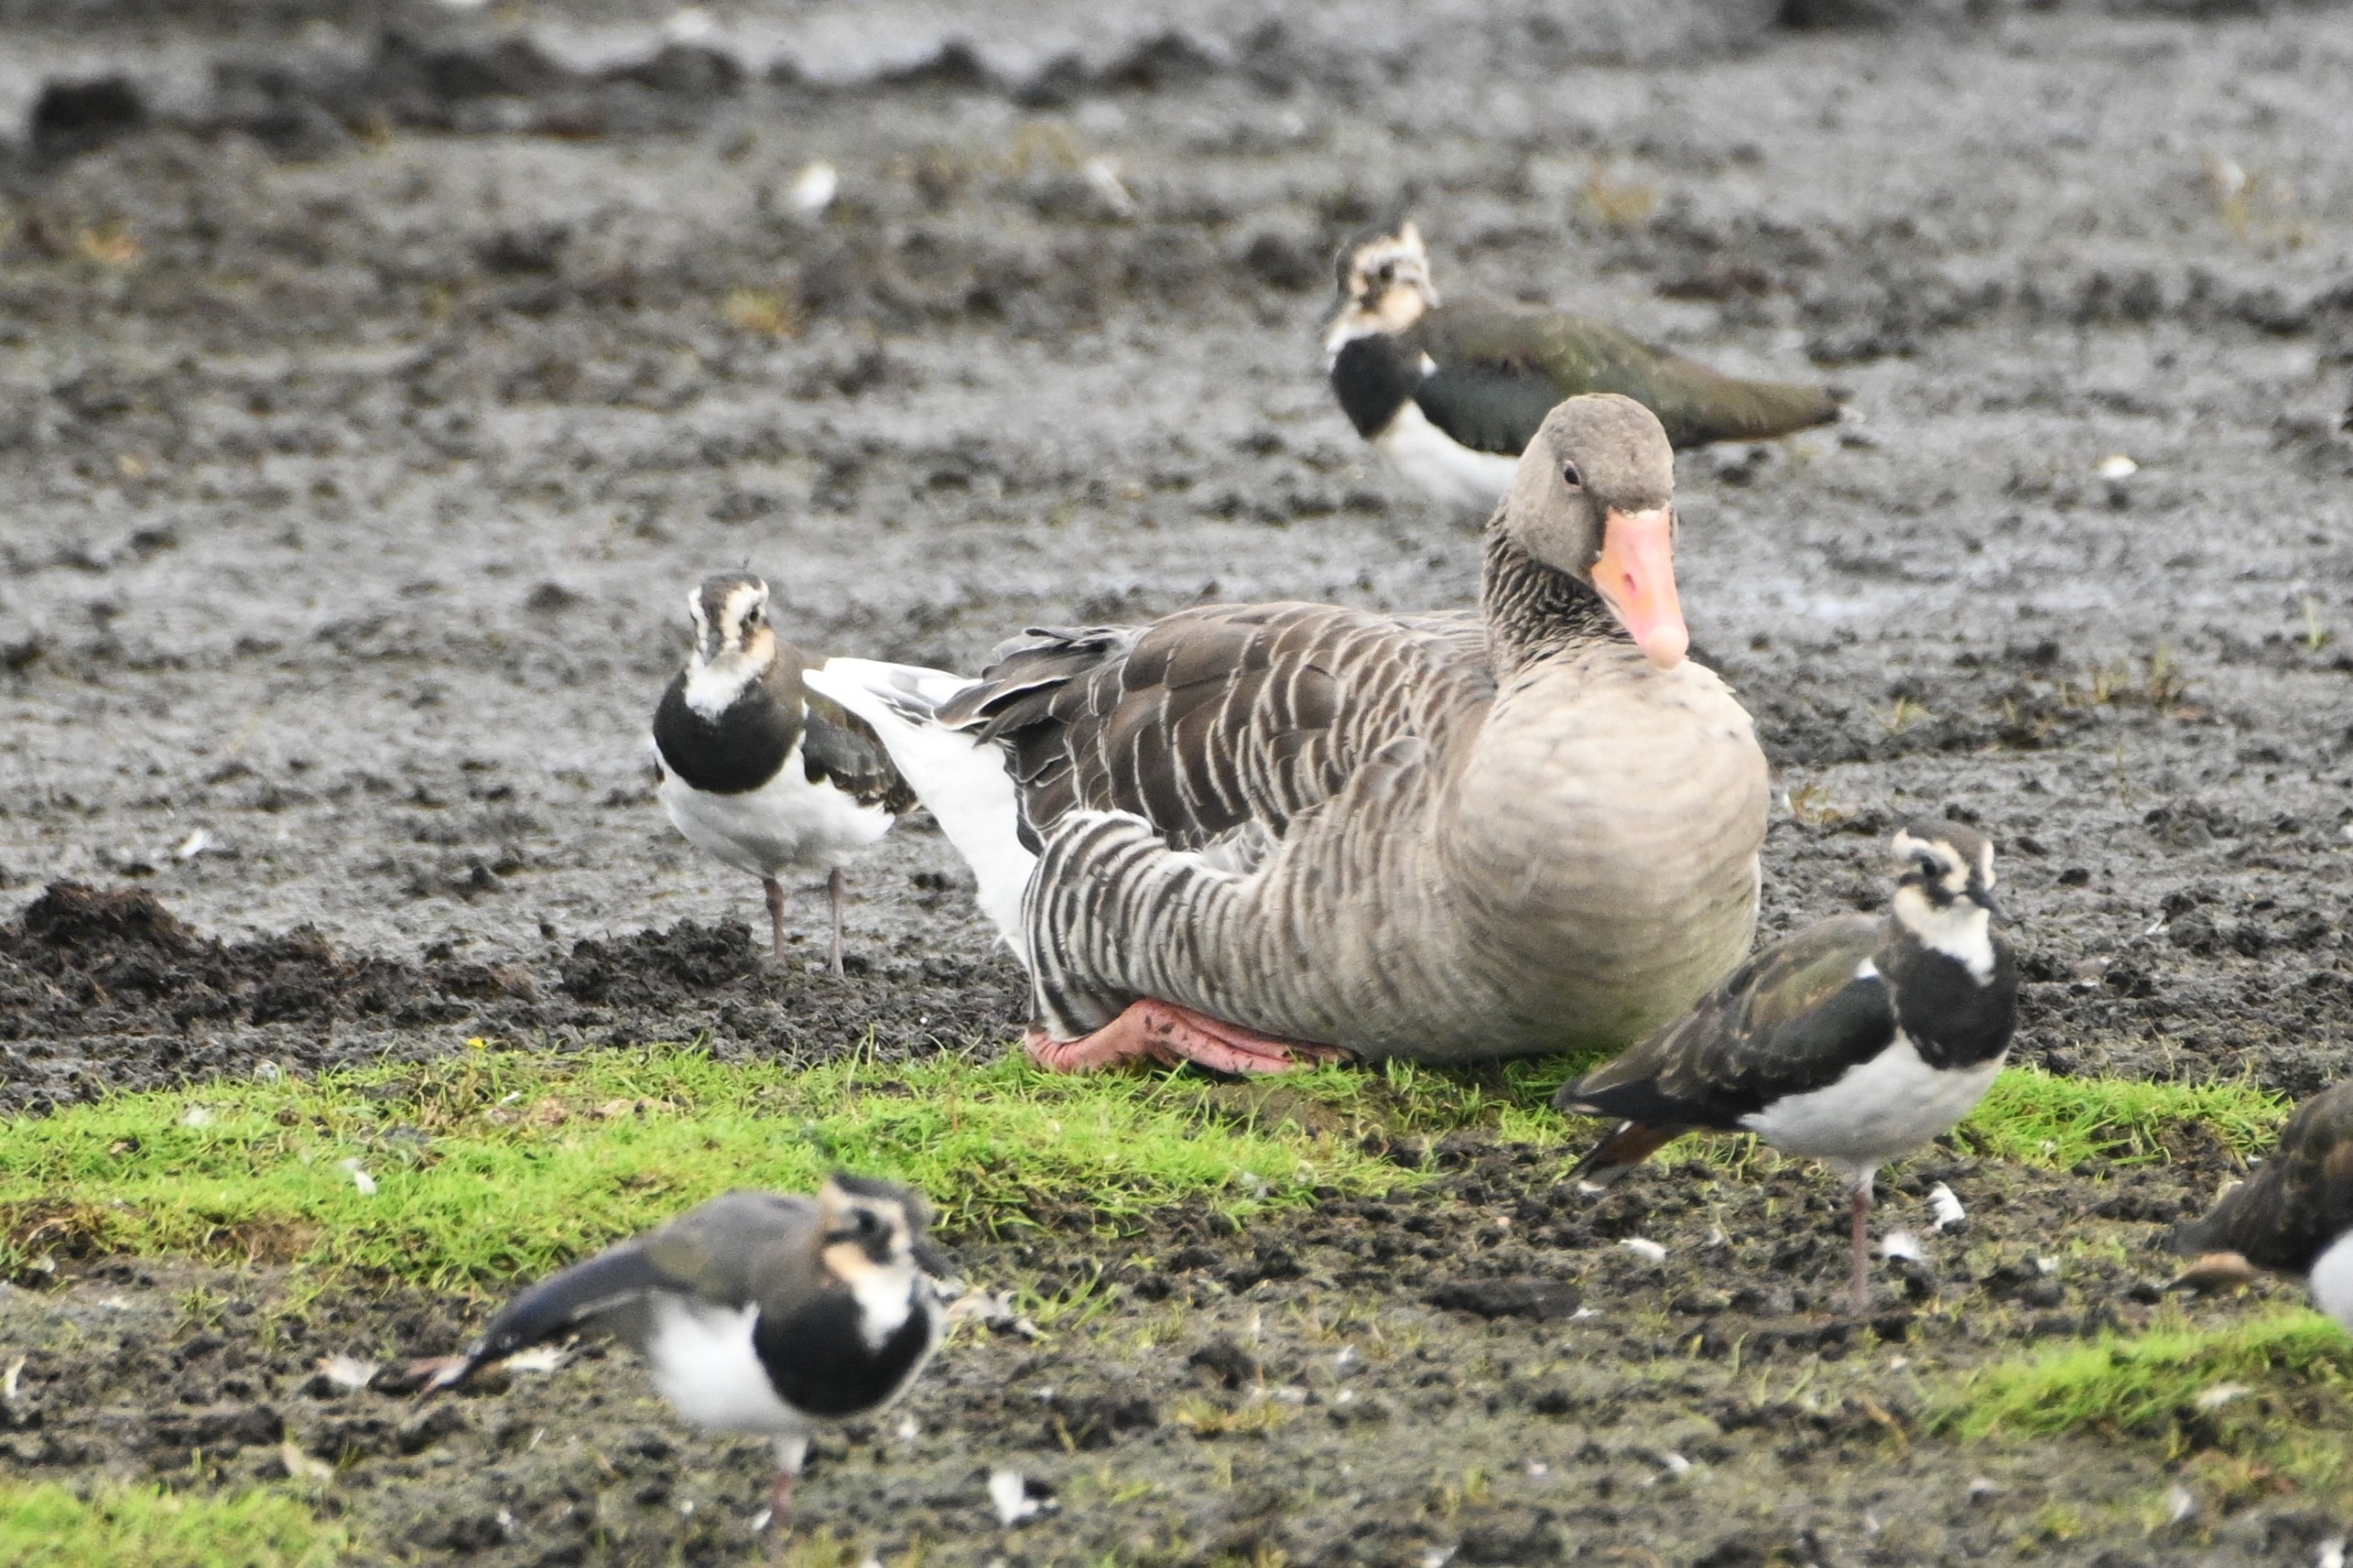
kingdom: Animalia
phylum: Chordata
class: Aves
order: Anseriformes
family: Anatidae
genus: Anser
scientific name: Anser anser
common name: Grågås
